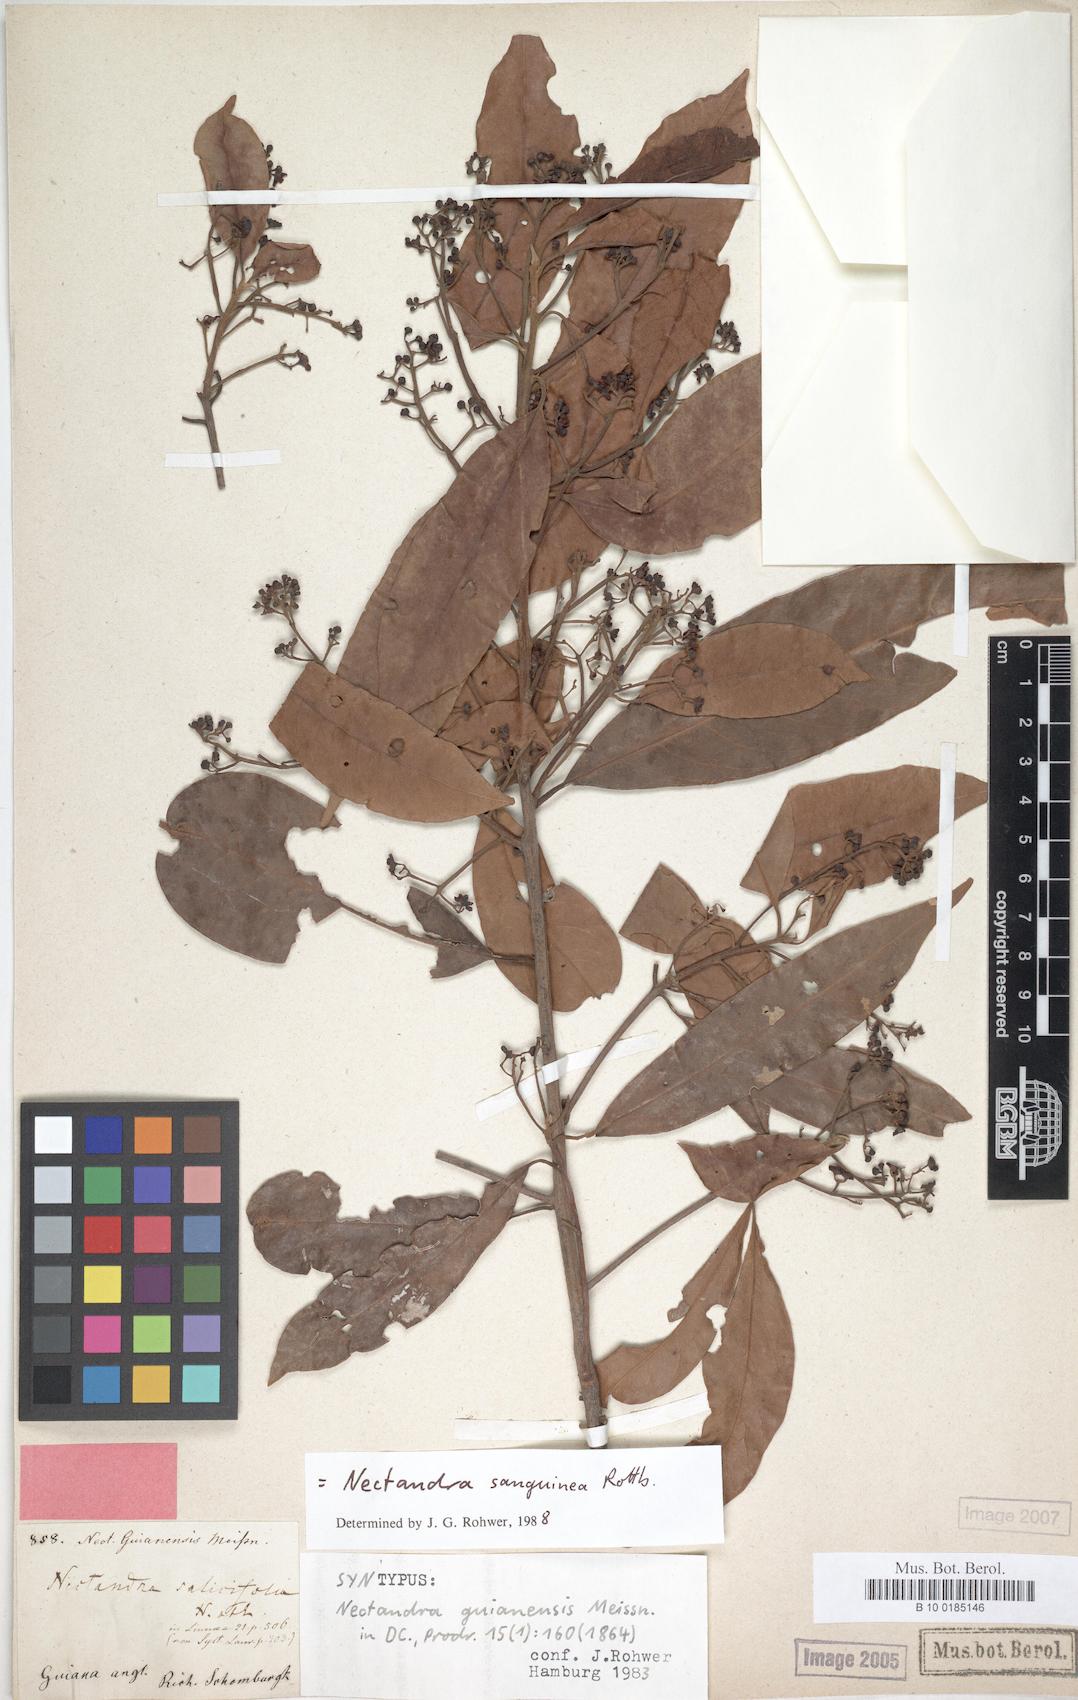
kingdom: Plantae
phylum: Tracheophyta
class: Magnoliopsida
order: Laurales
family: Lauraceae
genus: Nectandra
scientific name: Nectandra sanguinea
